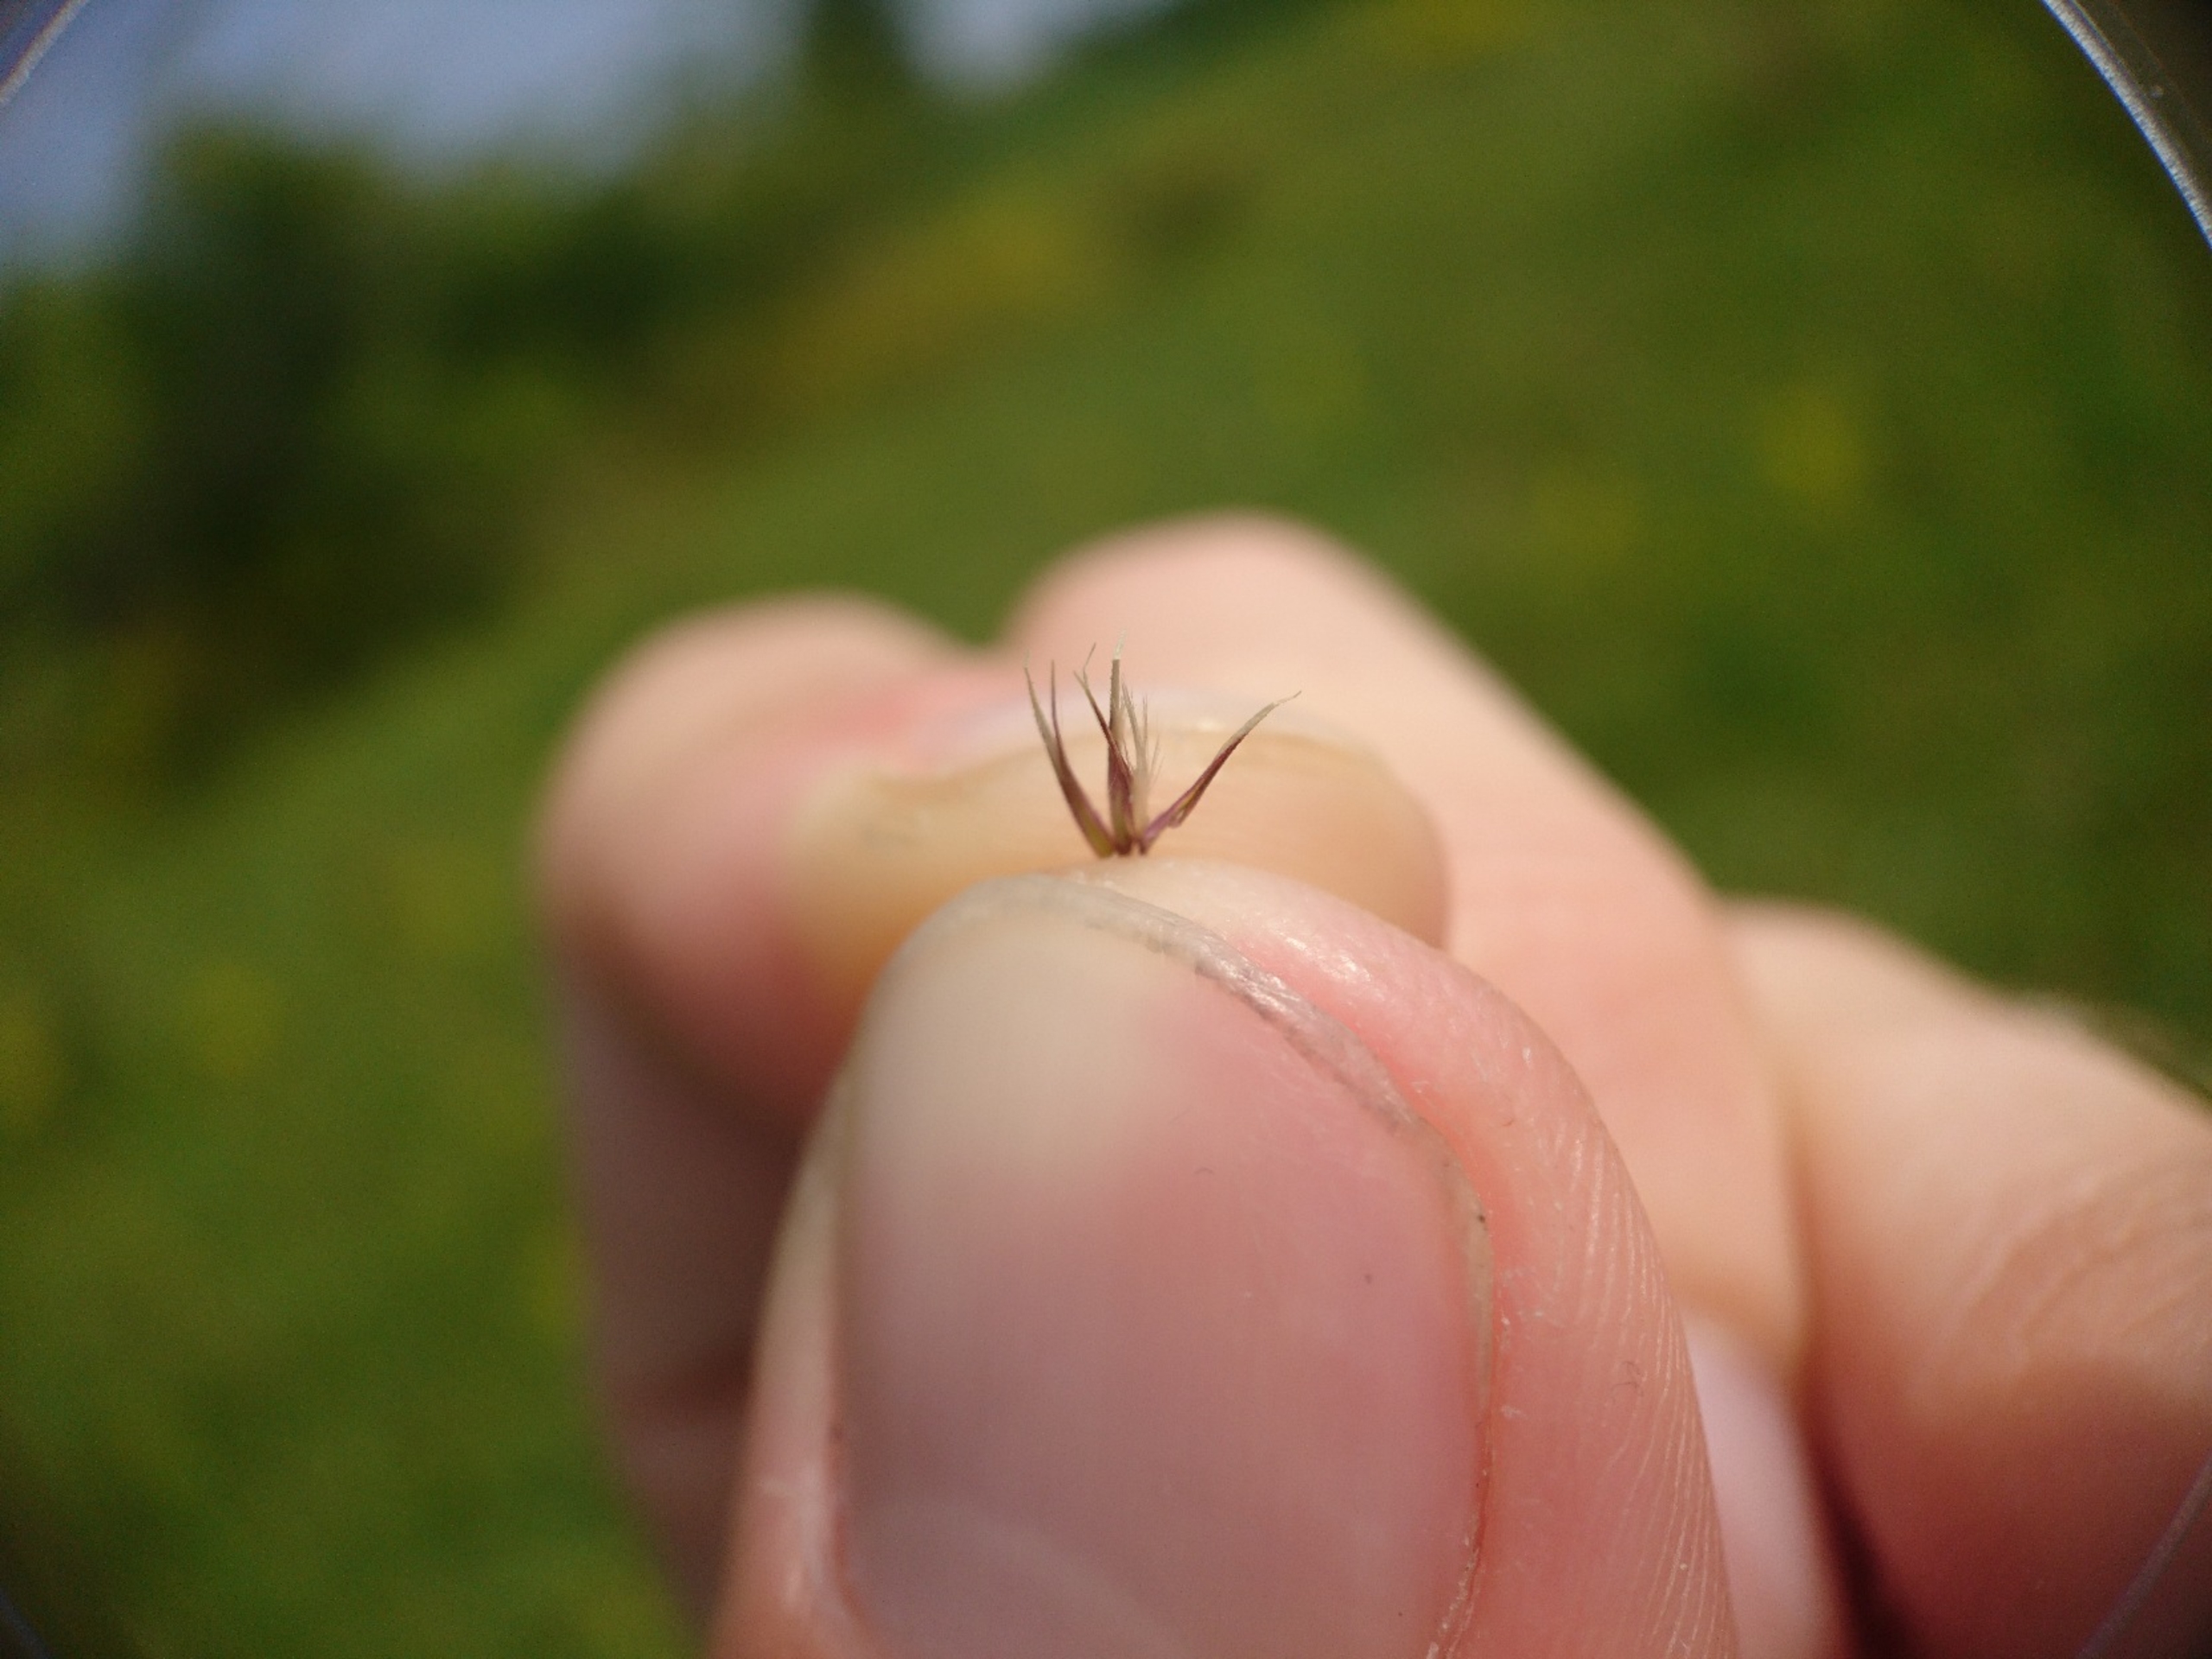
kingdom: Plantae
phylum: Tracheophyta
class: Liliopsida
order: Poales
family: Poaceae
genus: Calamagrostis
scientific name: Calamagrostis epigejos
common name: Bjerg-rørhvene
